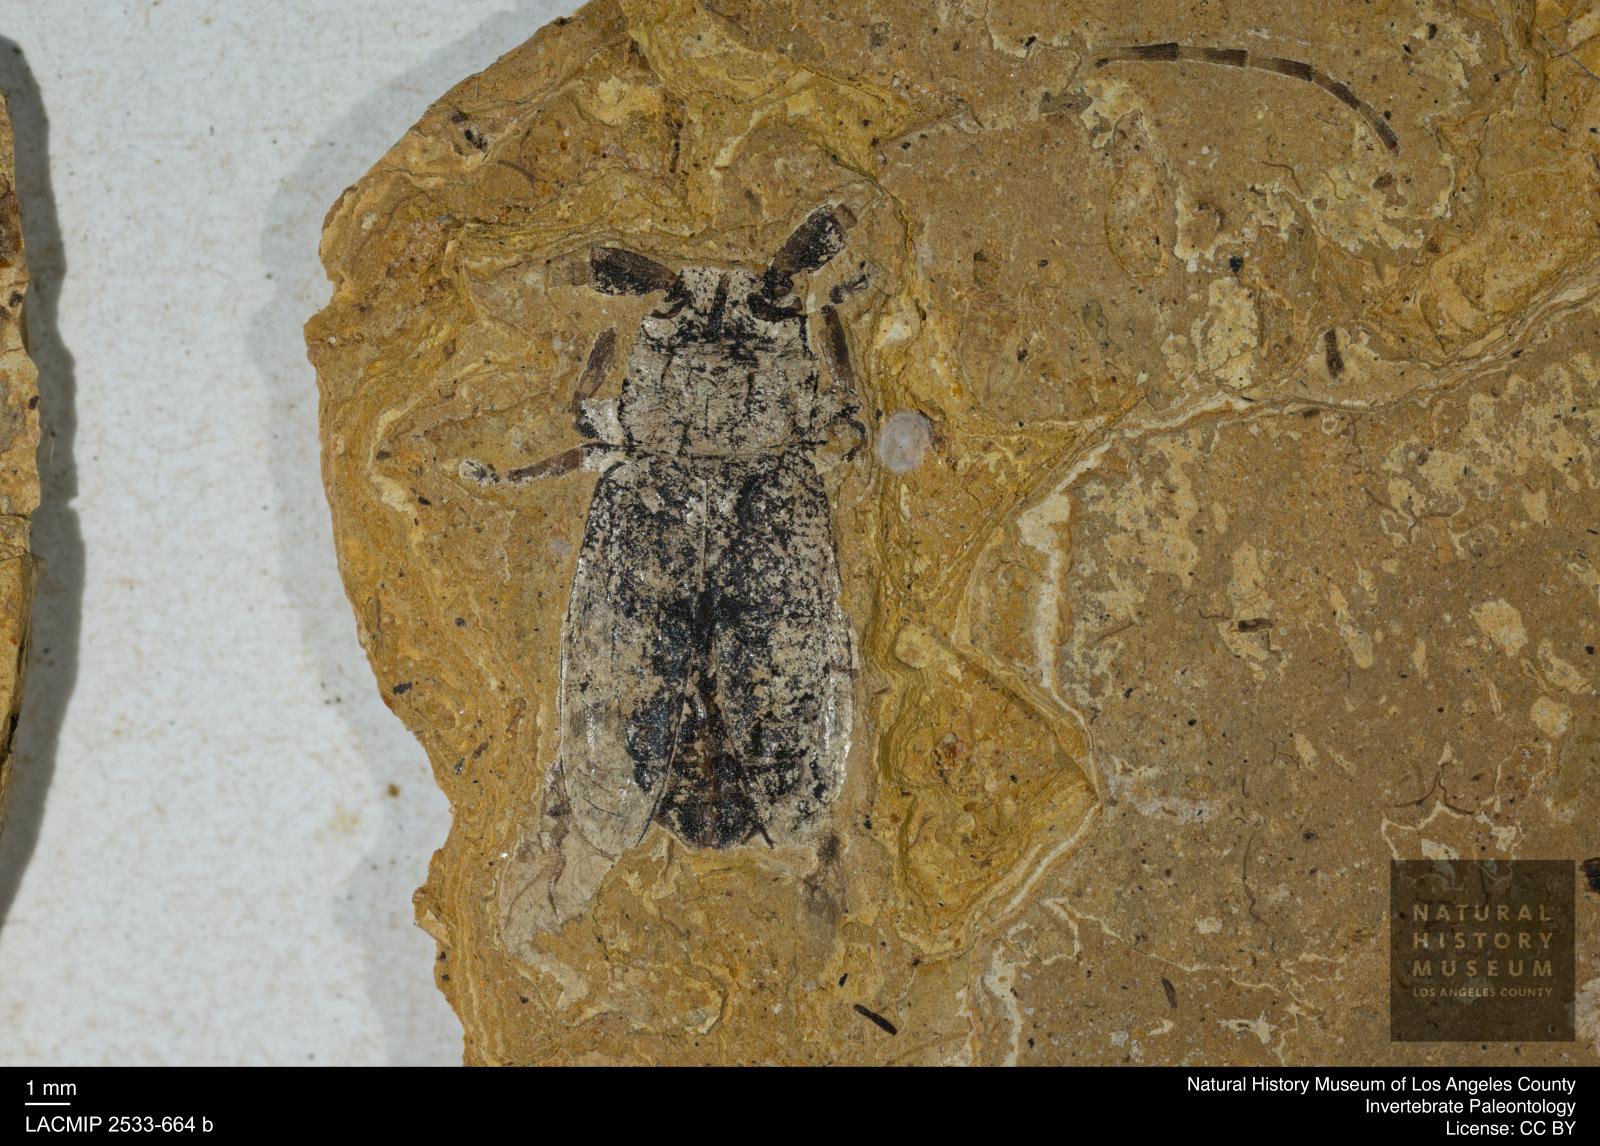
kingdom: Animalia
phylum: Arthropoda
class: Insecta
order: Coleoptera
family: Cerambycidae
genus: Mesosa
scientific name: Mesosa Haplocnemia sophiae
